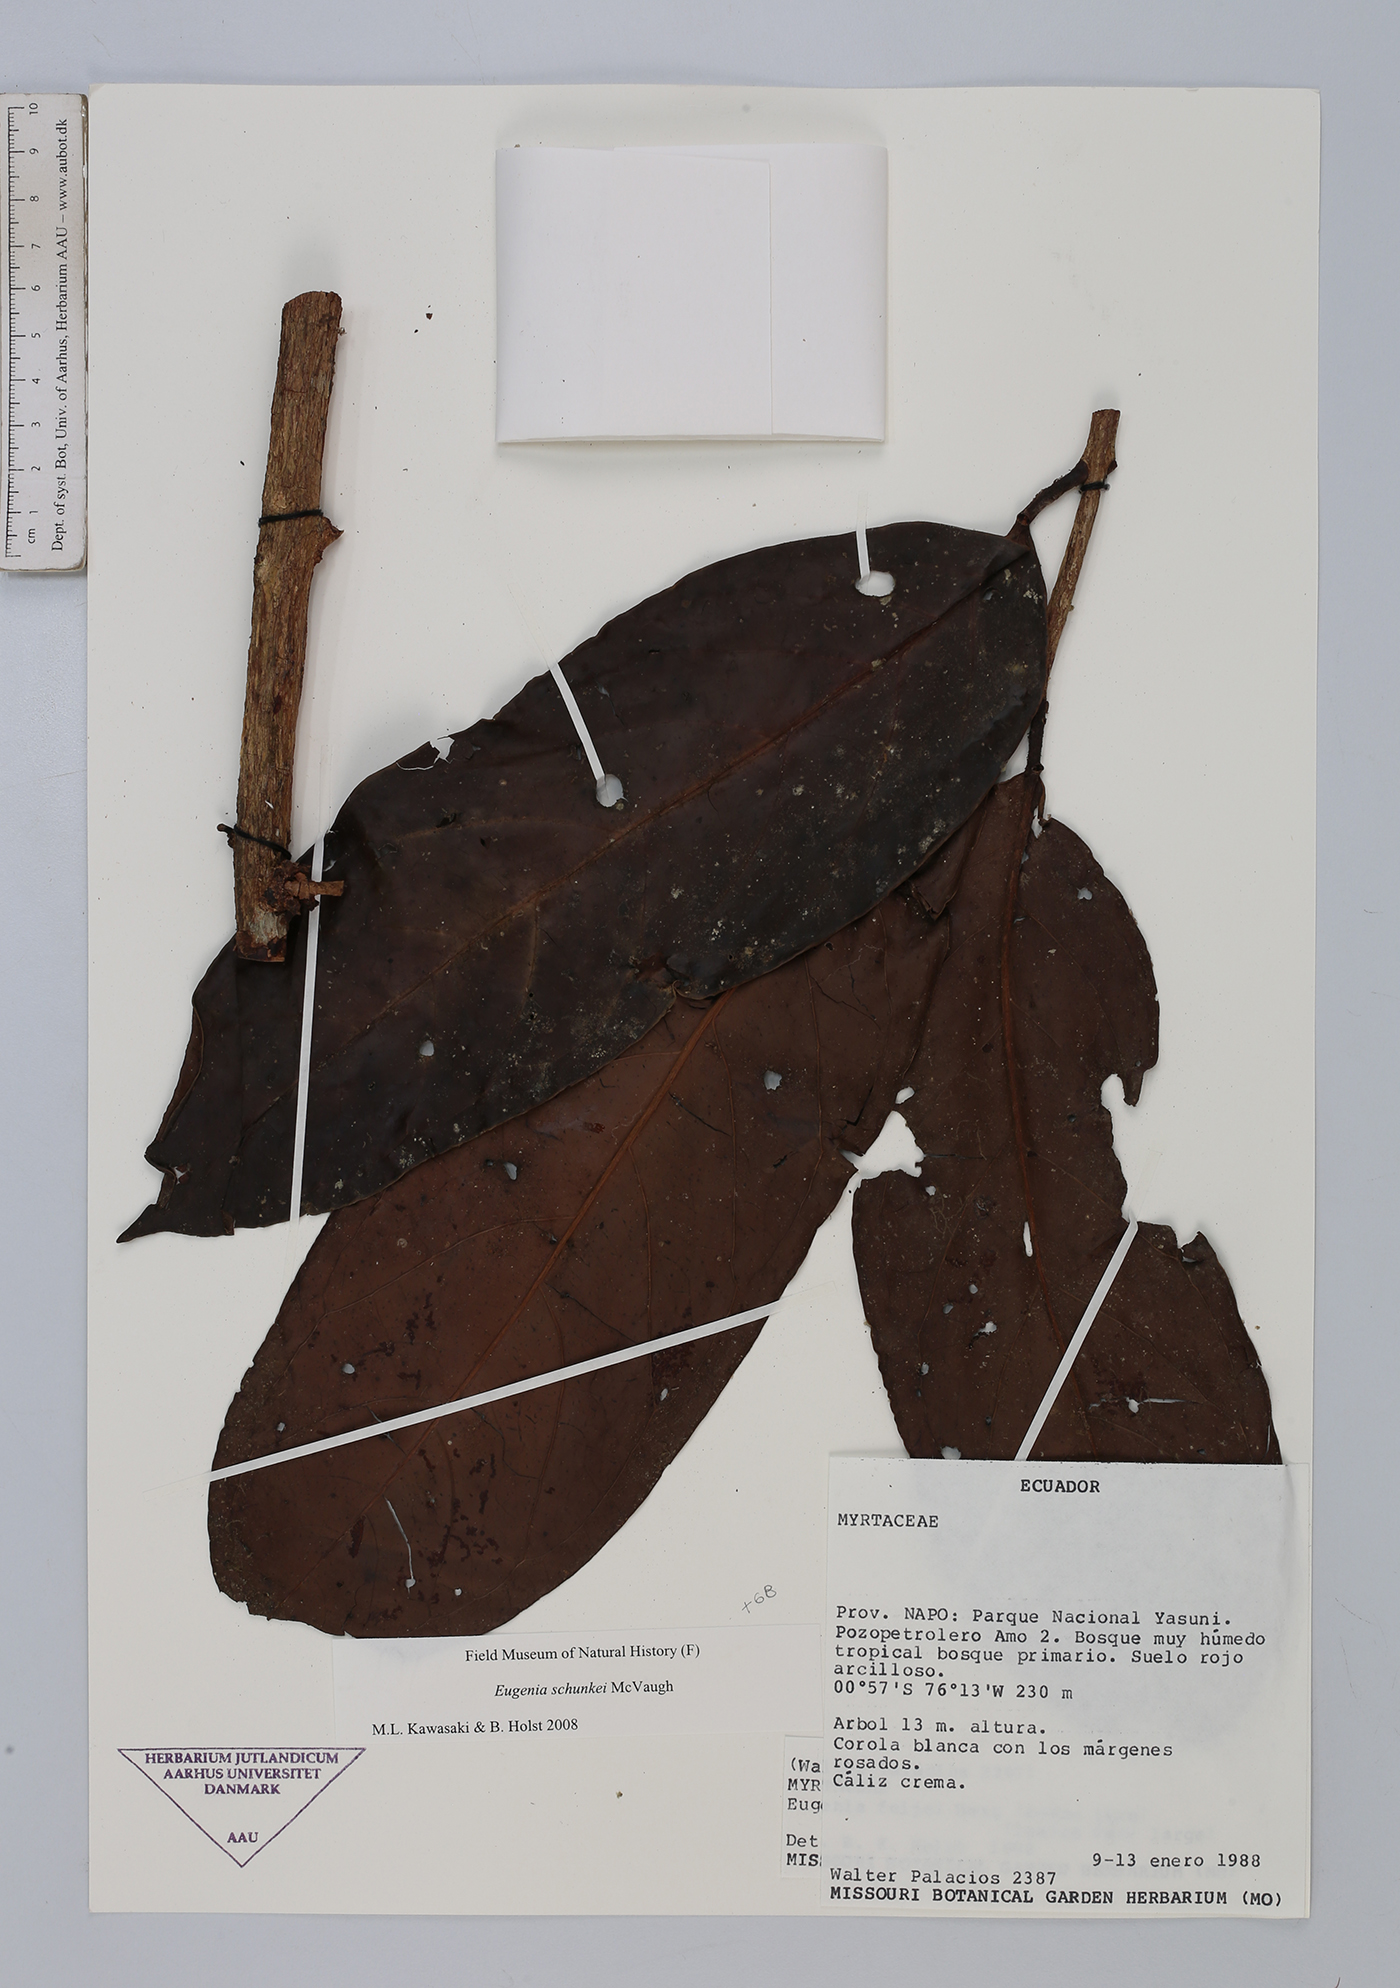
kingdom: Plantae
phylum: Tracheophyta
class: Magnoliopsida
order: Myrtales
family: Myrtaceae
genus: Eugenia
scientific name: Eugenia schunkei
